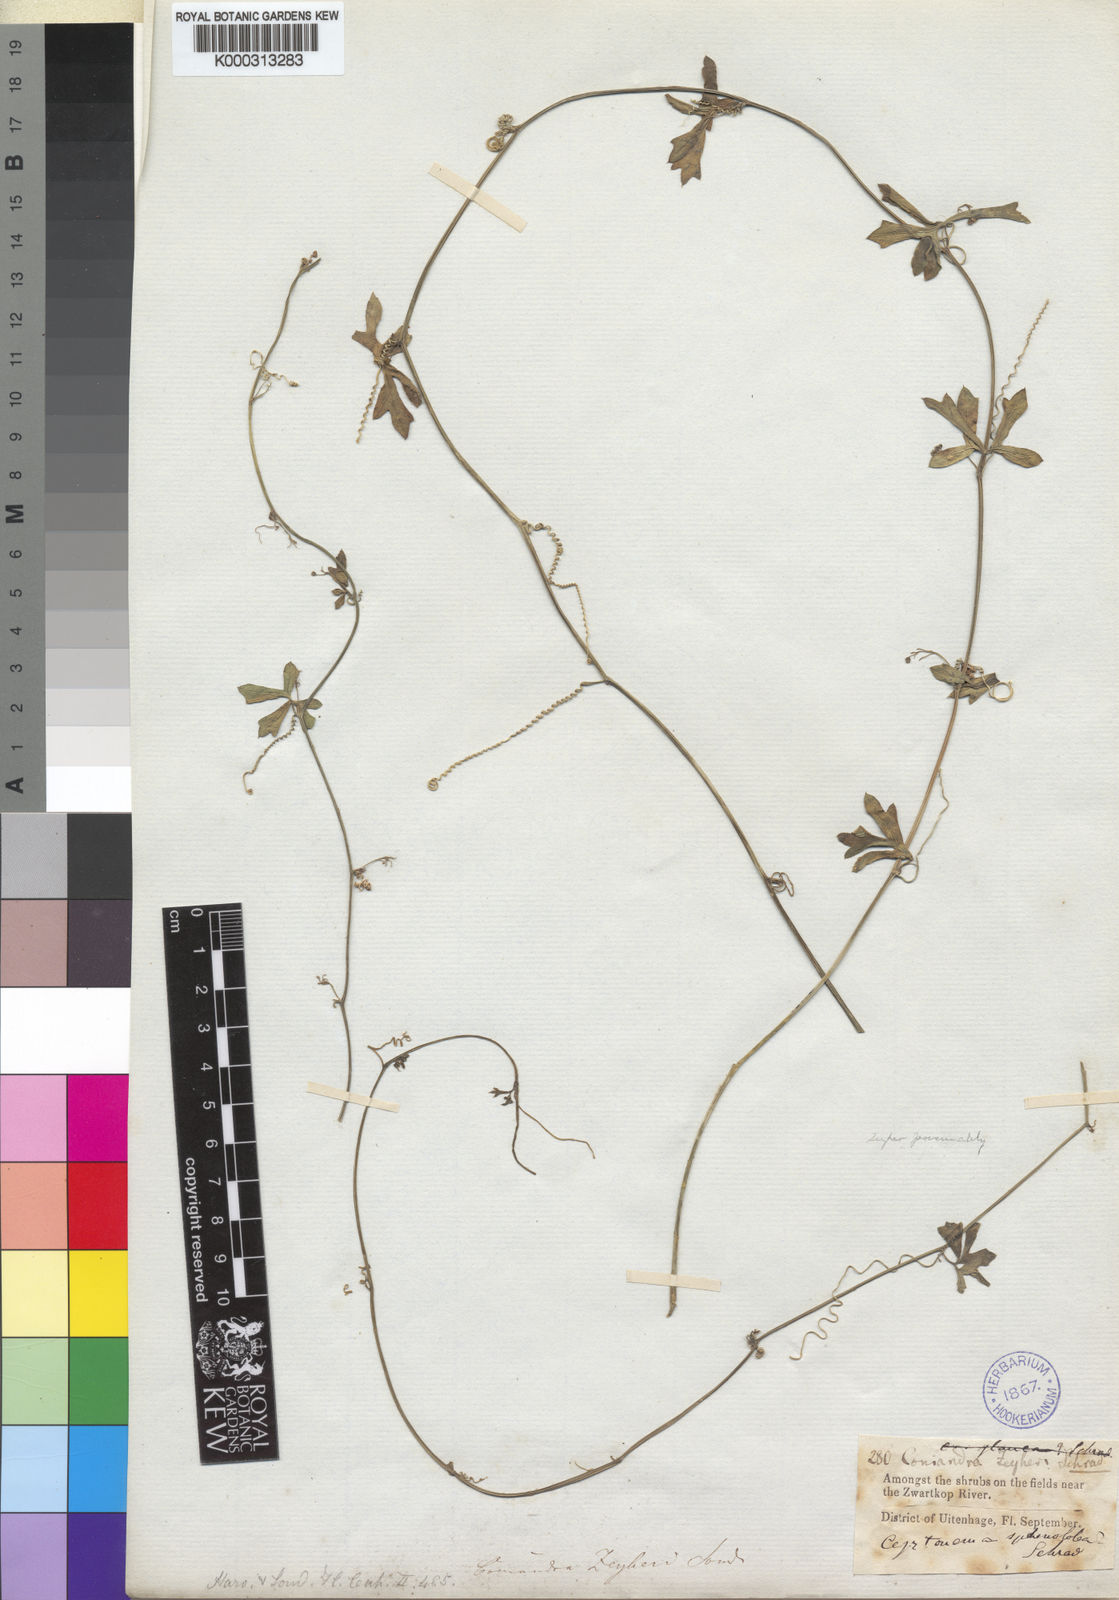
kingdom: Plantae
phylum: Tracheophyta
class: Magnoliopsida
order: Cucurbitales
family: Cucurbitaceae
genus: Kedrostis
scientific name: Kedrostis africana
